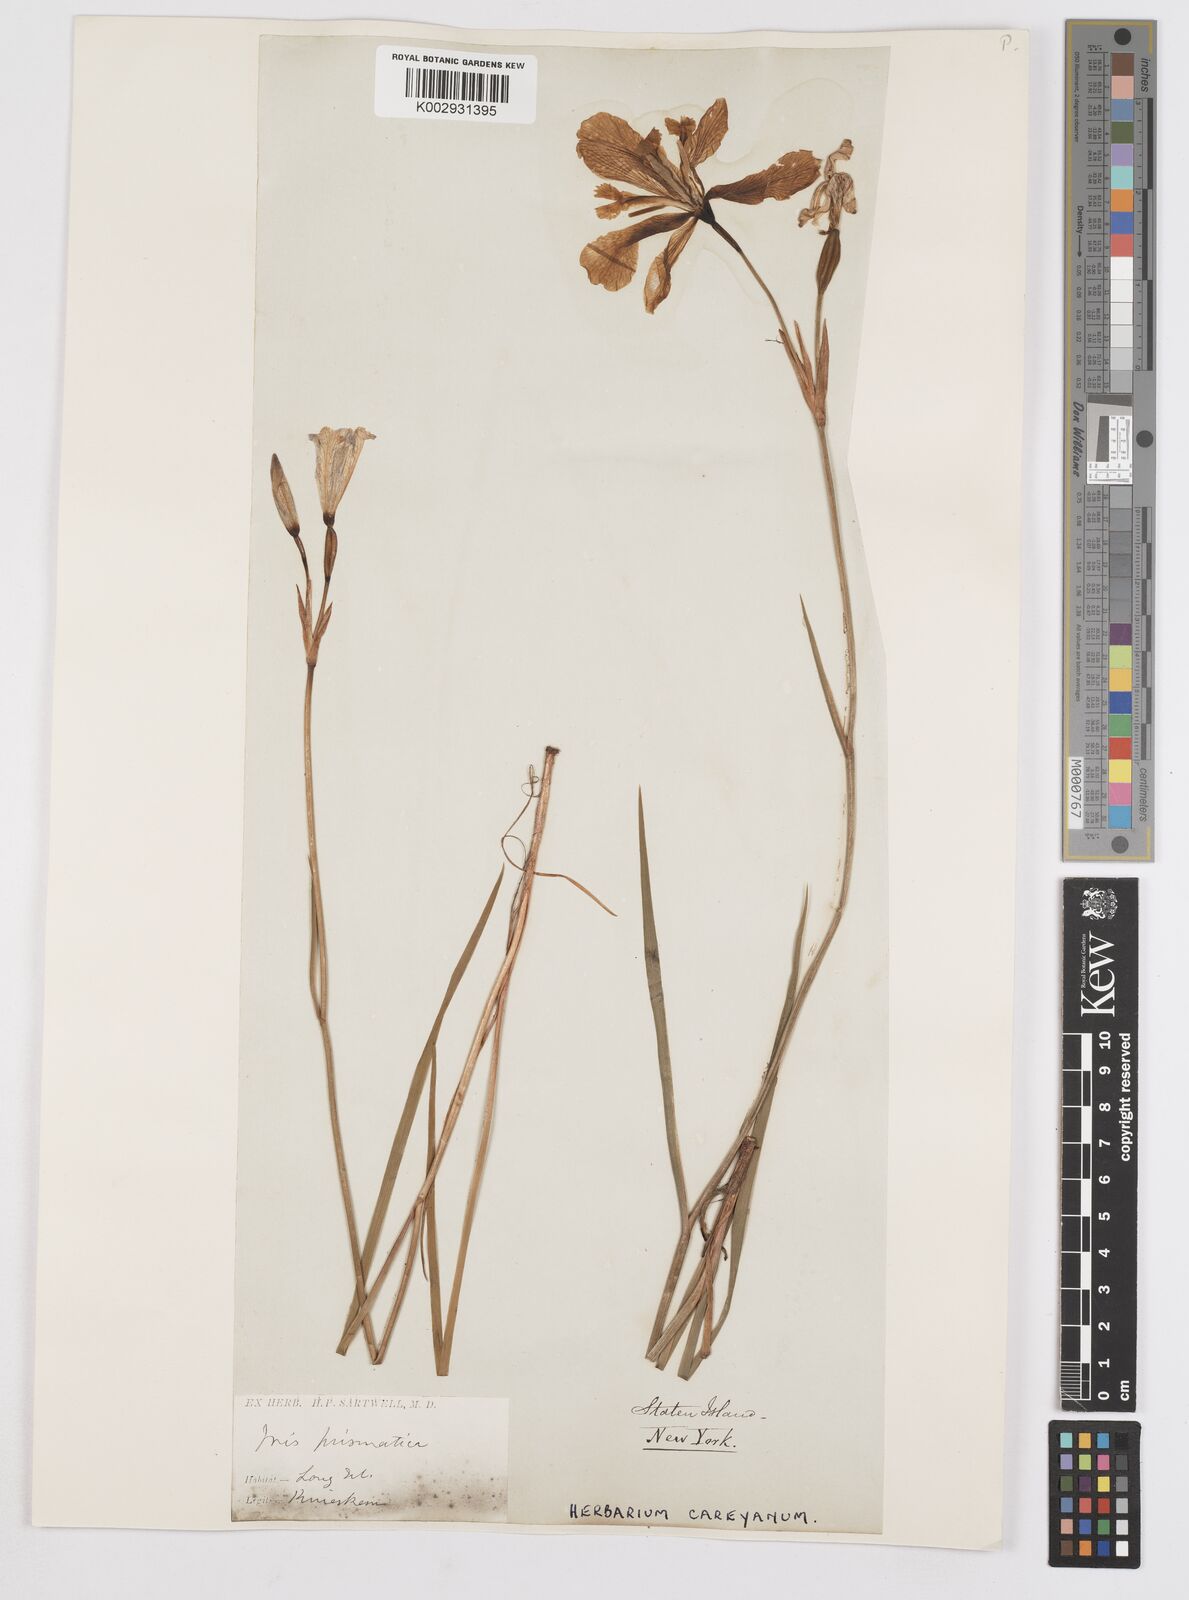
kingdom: Plantae
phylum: Tracheophyta
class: Liliopsida
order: Asparagales
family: Iridaceae
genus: Iris
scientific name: Iris prismatica
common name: Slender blue flag
